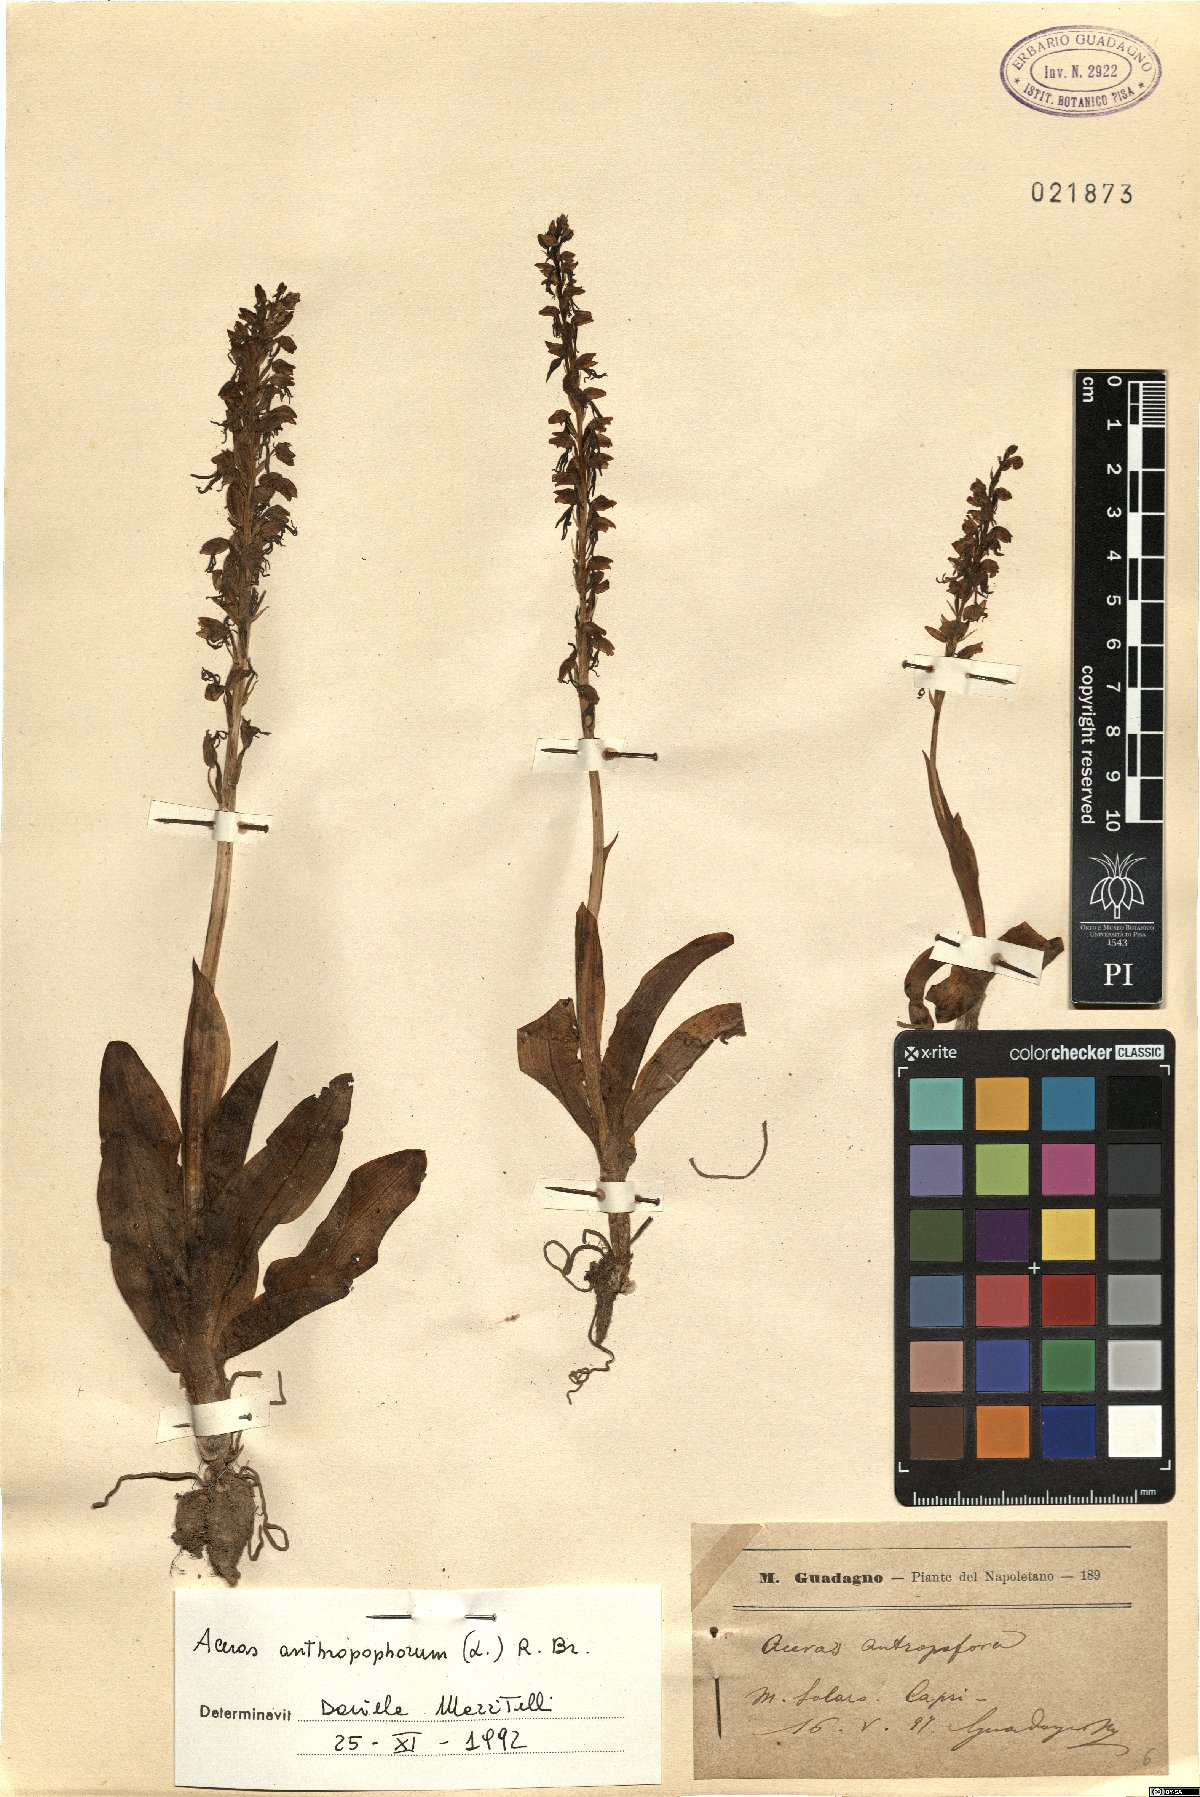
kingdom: Plantae
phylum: Tracheophyta
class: Liliopsida
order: Asparagales
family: Orchidaceae
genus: Orchis
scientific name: Orchis anthropophora
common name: Man orchid
